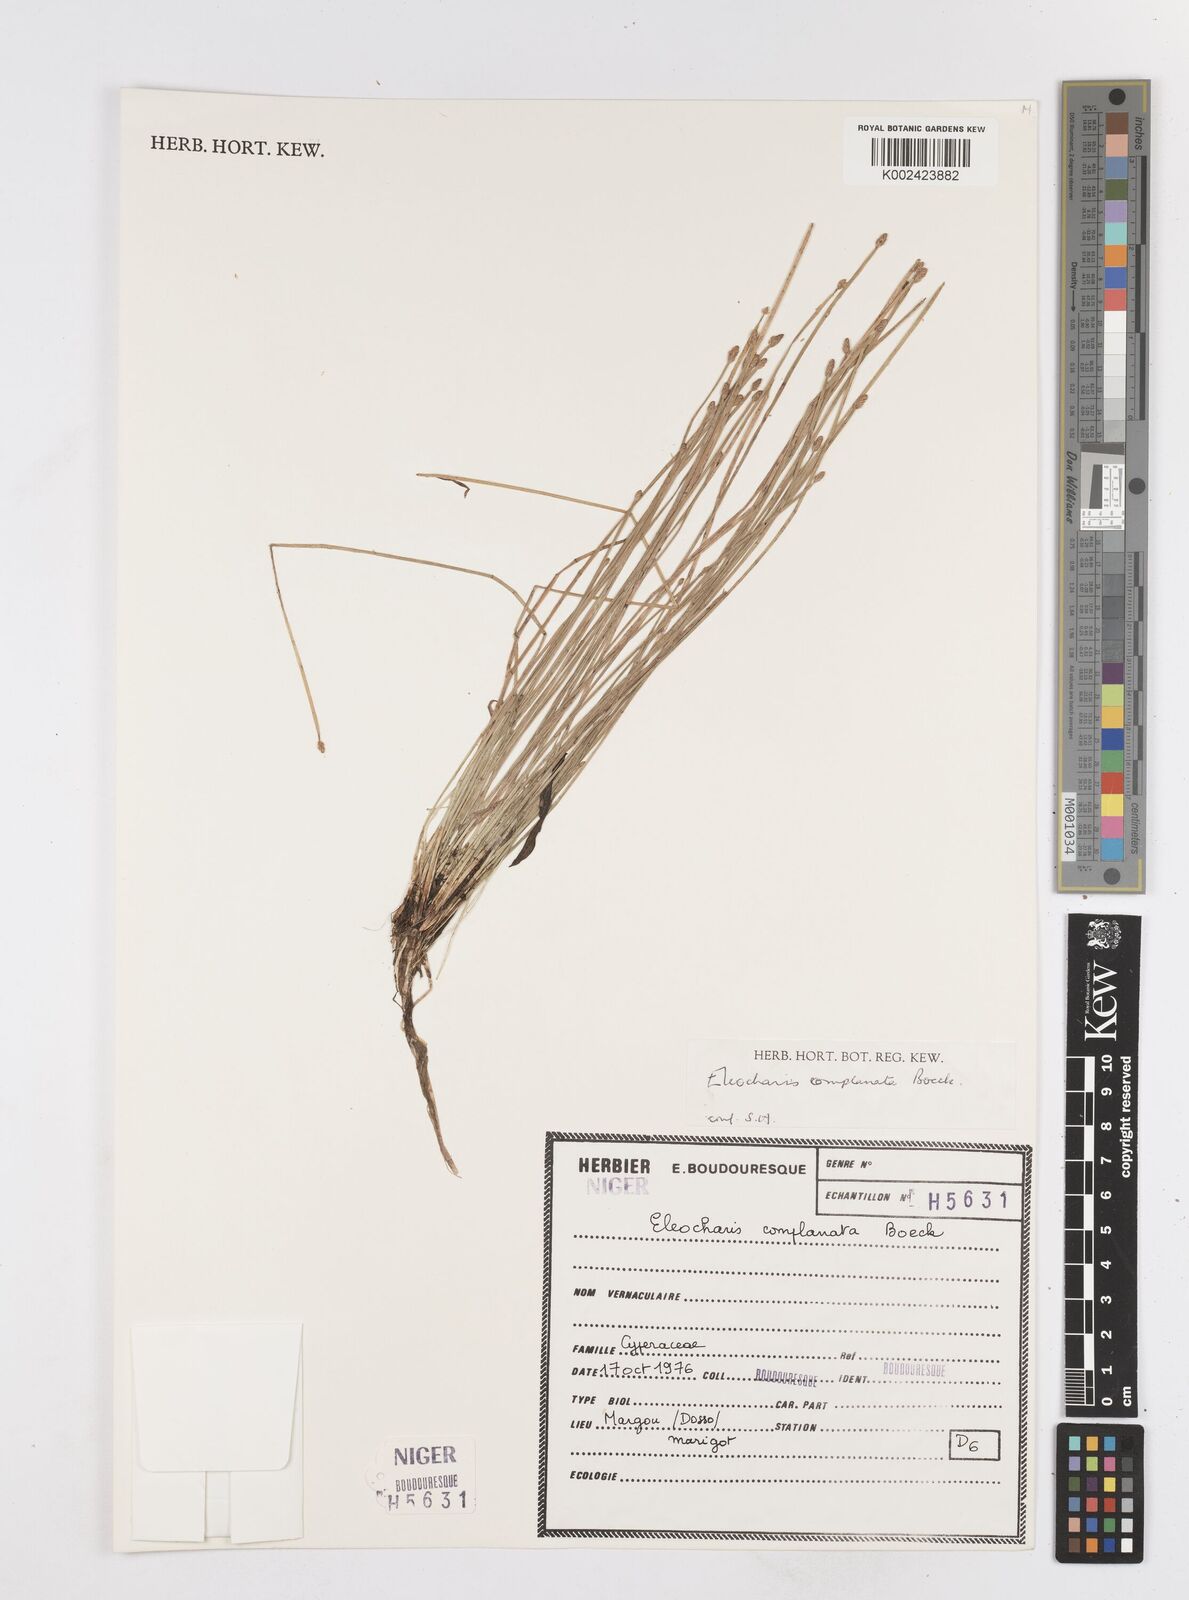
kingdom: Plantae
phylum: Tracheophyta
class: Liliopsida
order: Poales
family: Cyperaceae
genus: Eleocharis
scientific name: Eleocharis complanata
